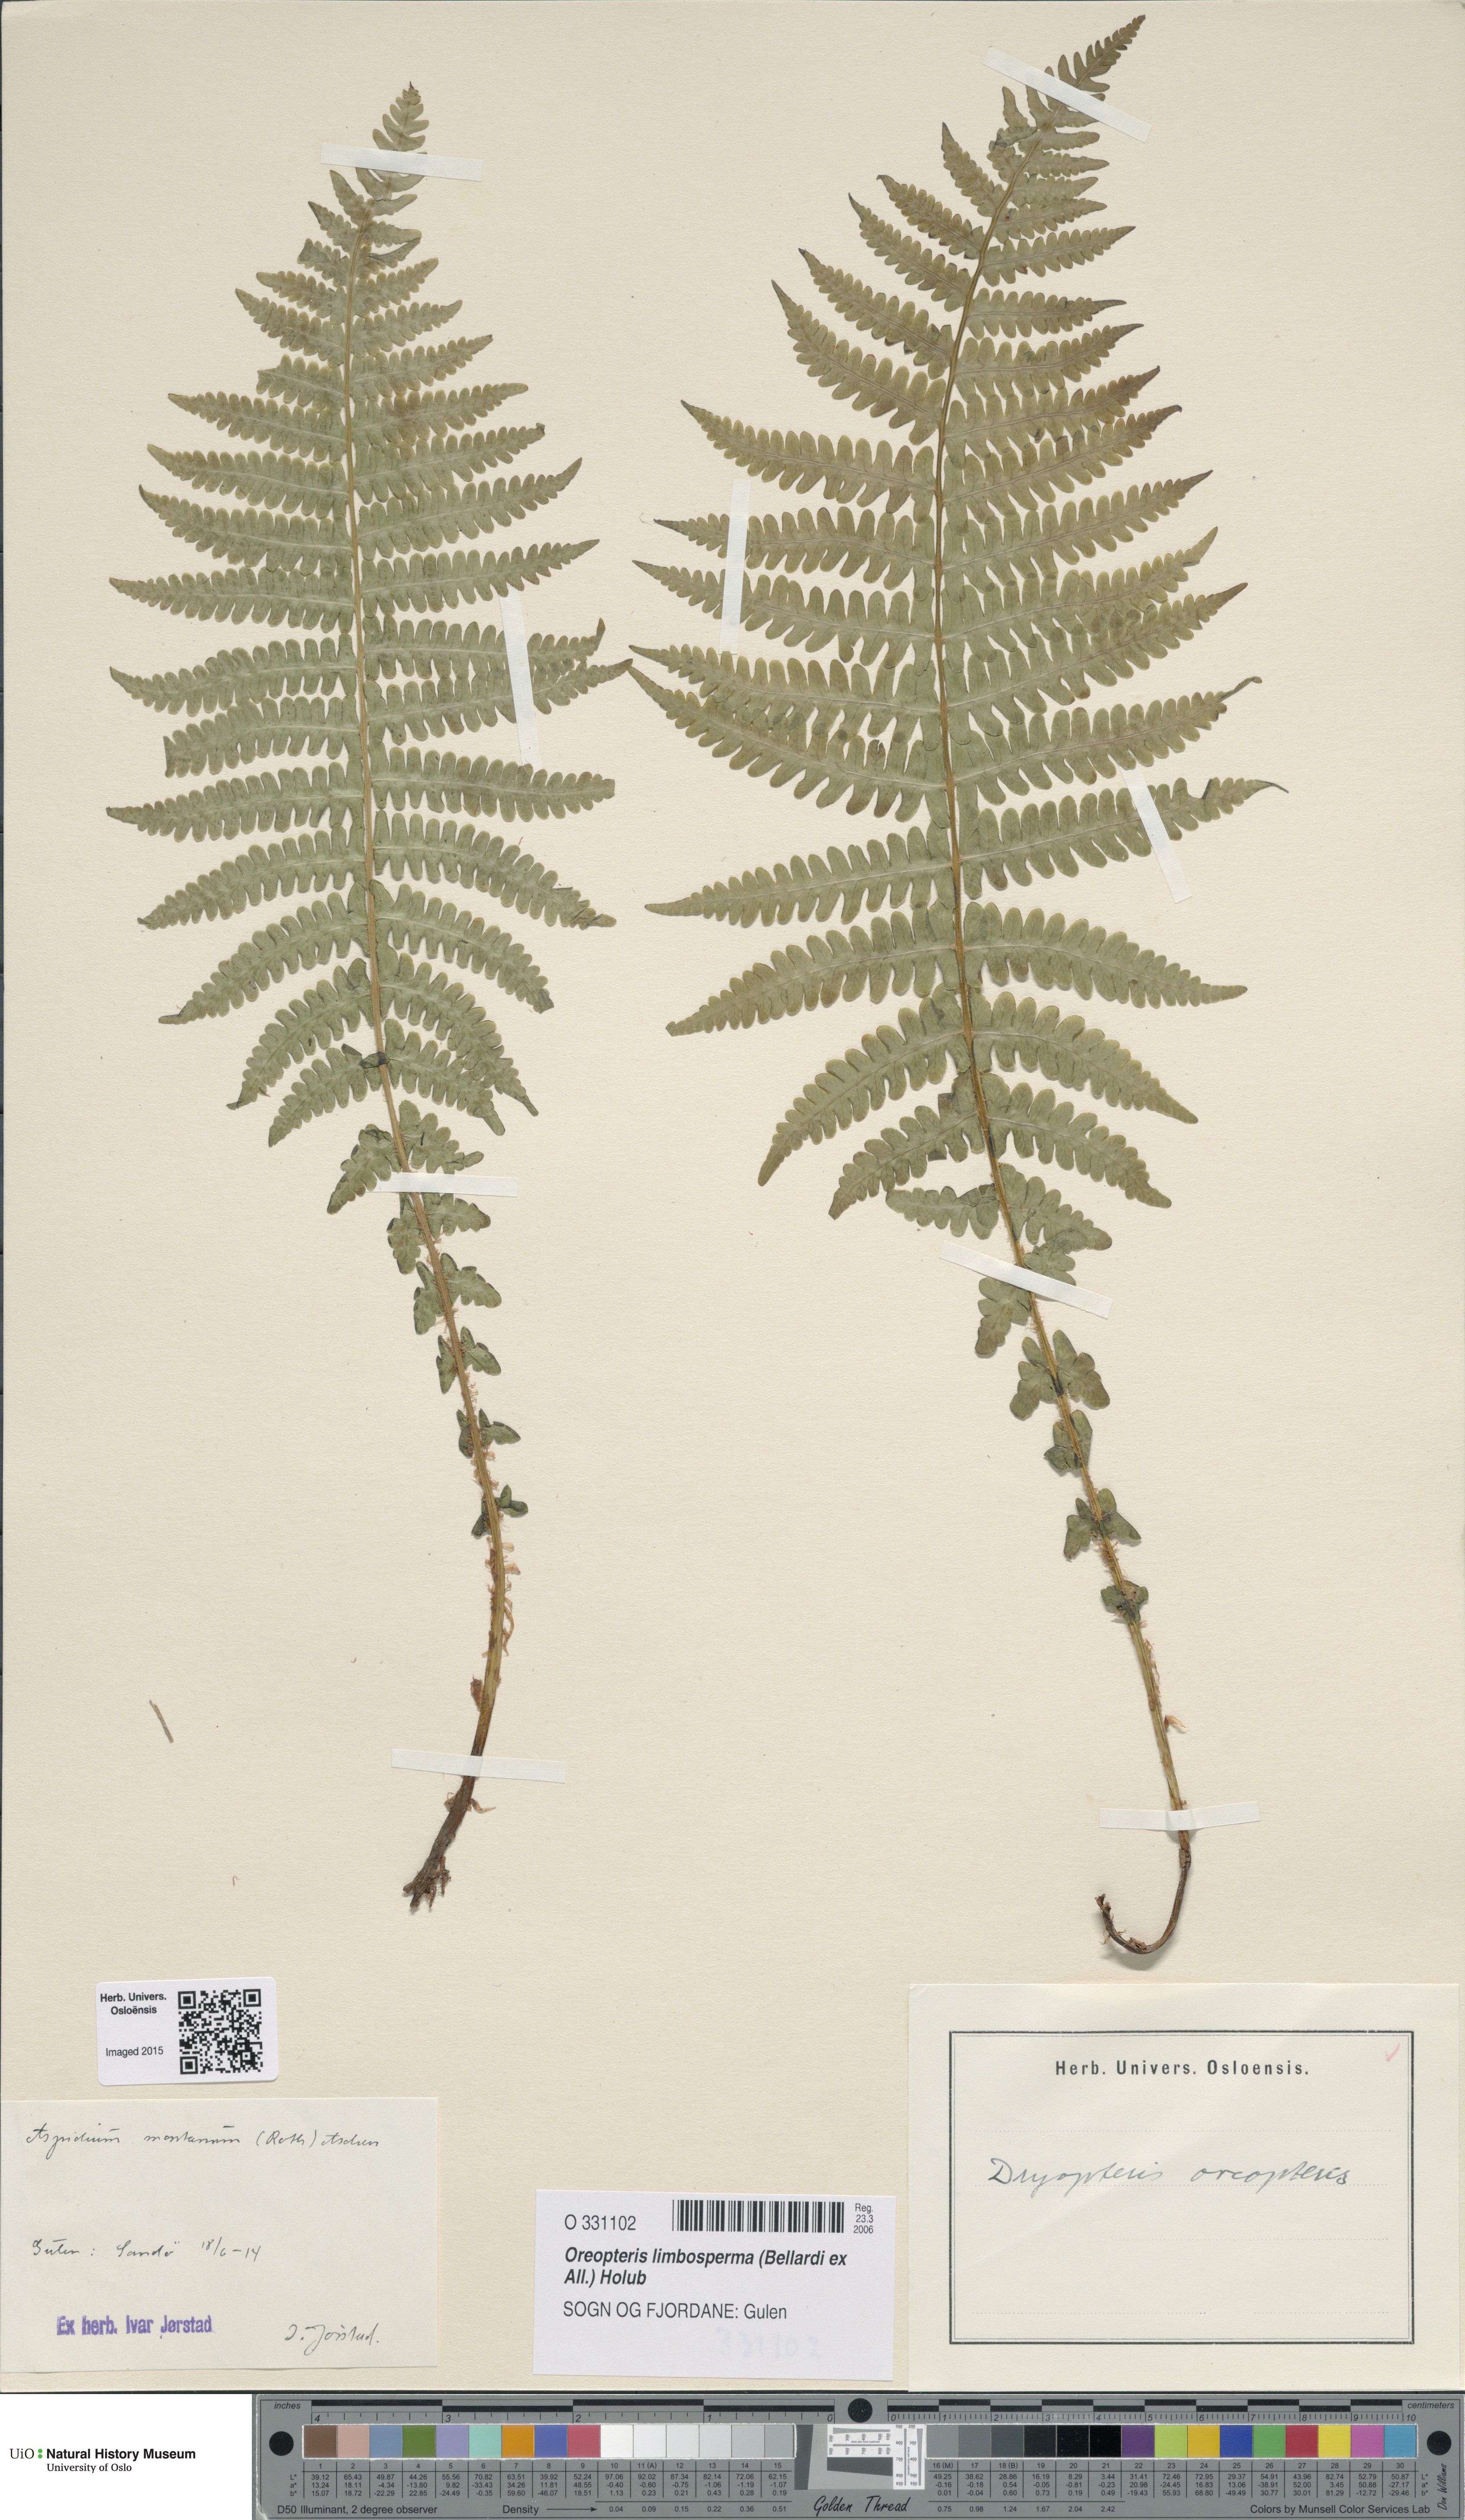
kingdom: Plantae
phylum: Tracheophyta
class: Polypodiopsida
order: Polypodiales
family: Thelypteridaceae
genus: Oreopteris
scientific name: Oreopteris limbosperma
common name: Lemon-scented fern
